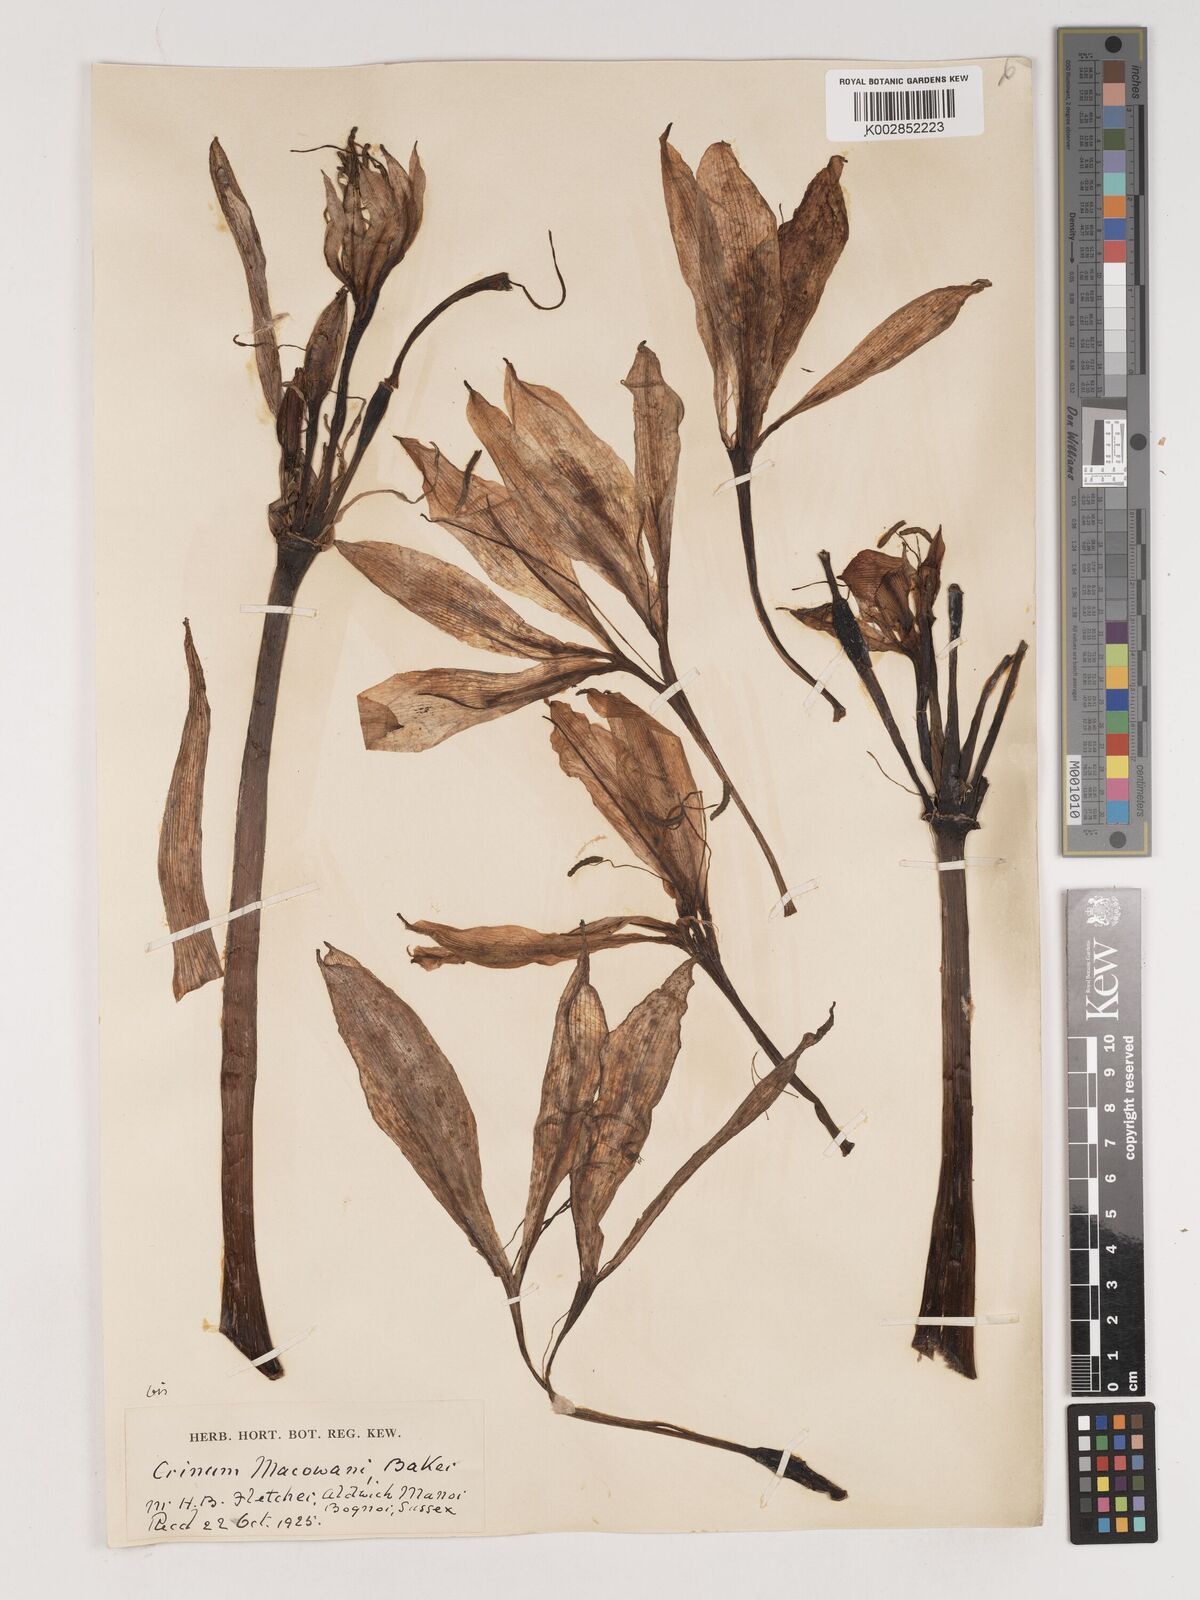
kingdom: Plantae
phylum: Tracheophyta
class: Liliopsida
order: Asparagales
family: Amaryllidaceae
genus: Crinum
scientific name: Crinum macowanii
